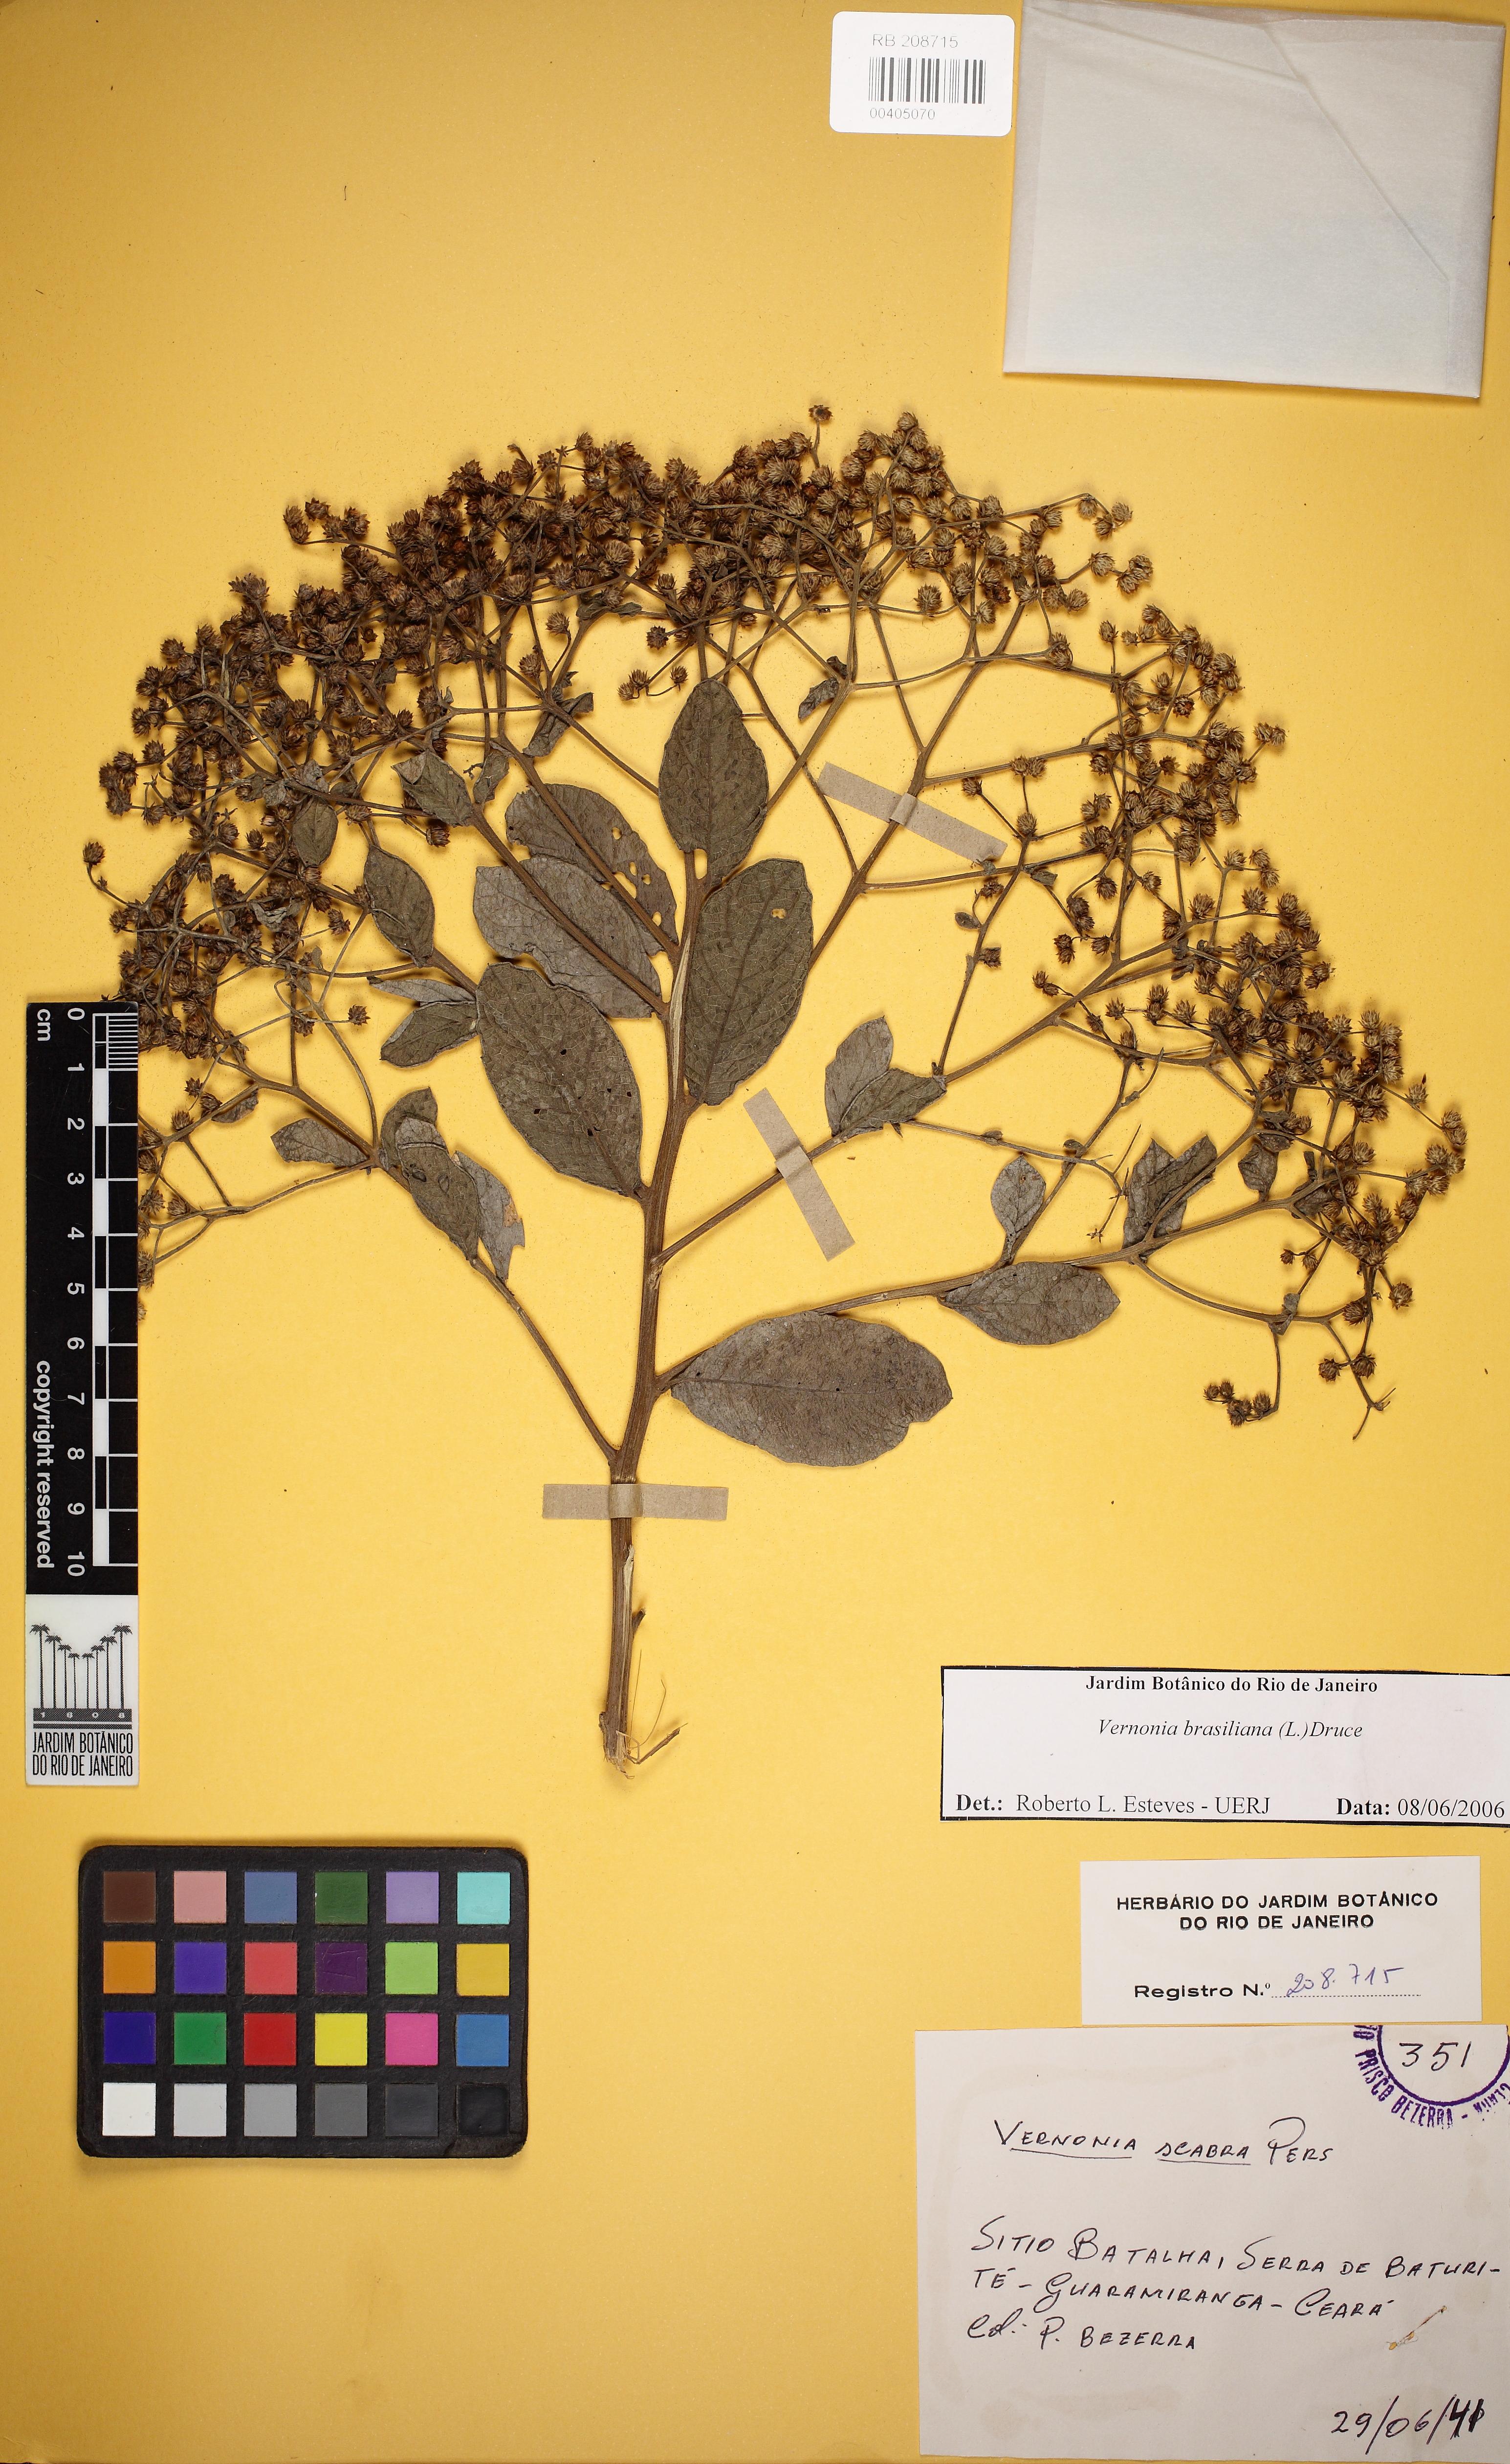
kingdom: Plantae
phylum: Tracheophyta
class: Magnoliopsida
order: Asterales
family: Asteraceae
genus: Vernonanthura
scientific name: Vernonanthura
